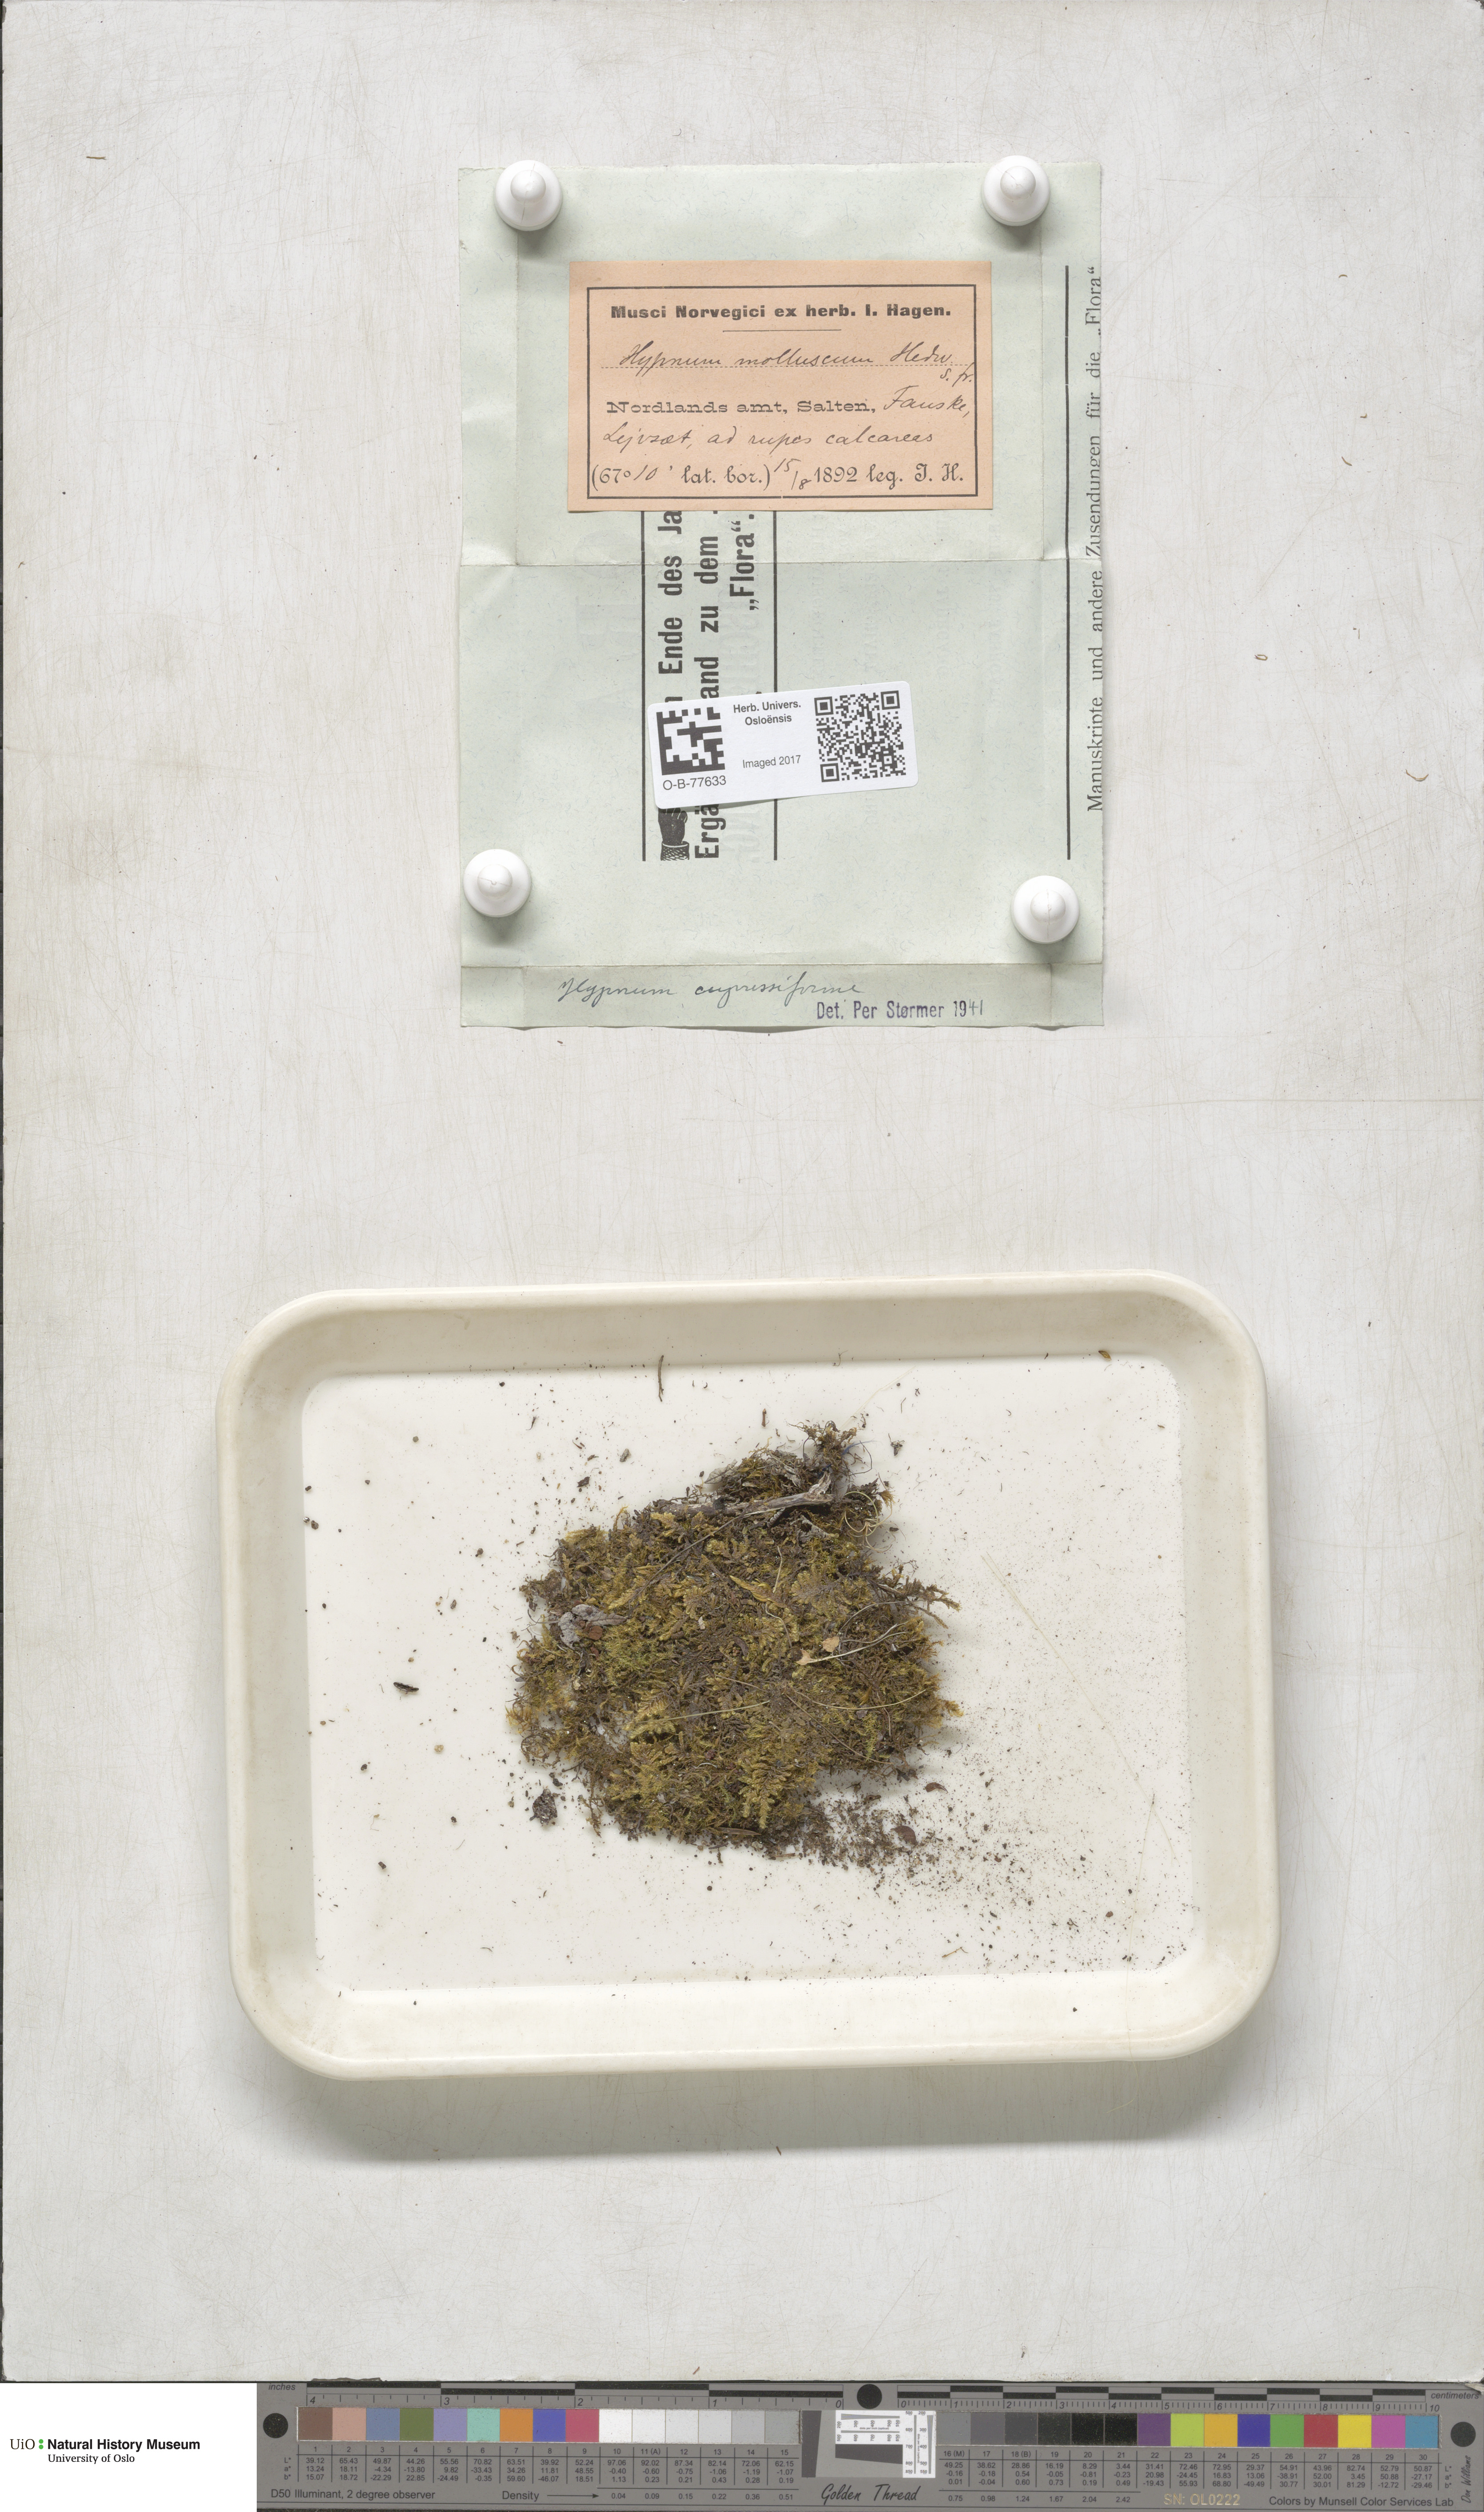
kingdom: Plantae
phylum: Bryophyta
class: Bryopsida
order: Hypnales
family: Hypnaceae
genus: Hypnum
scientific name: Hypnum cupressiforme
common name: Cypress-leaved plait-moss
